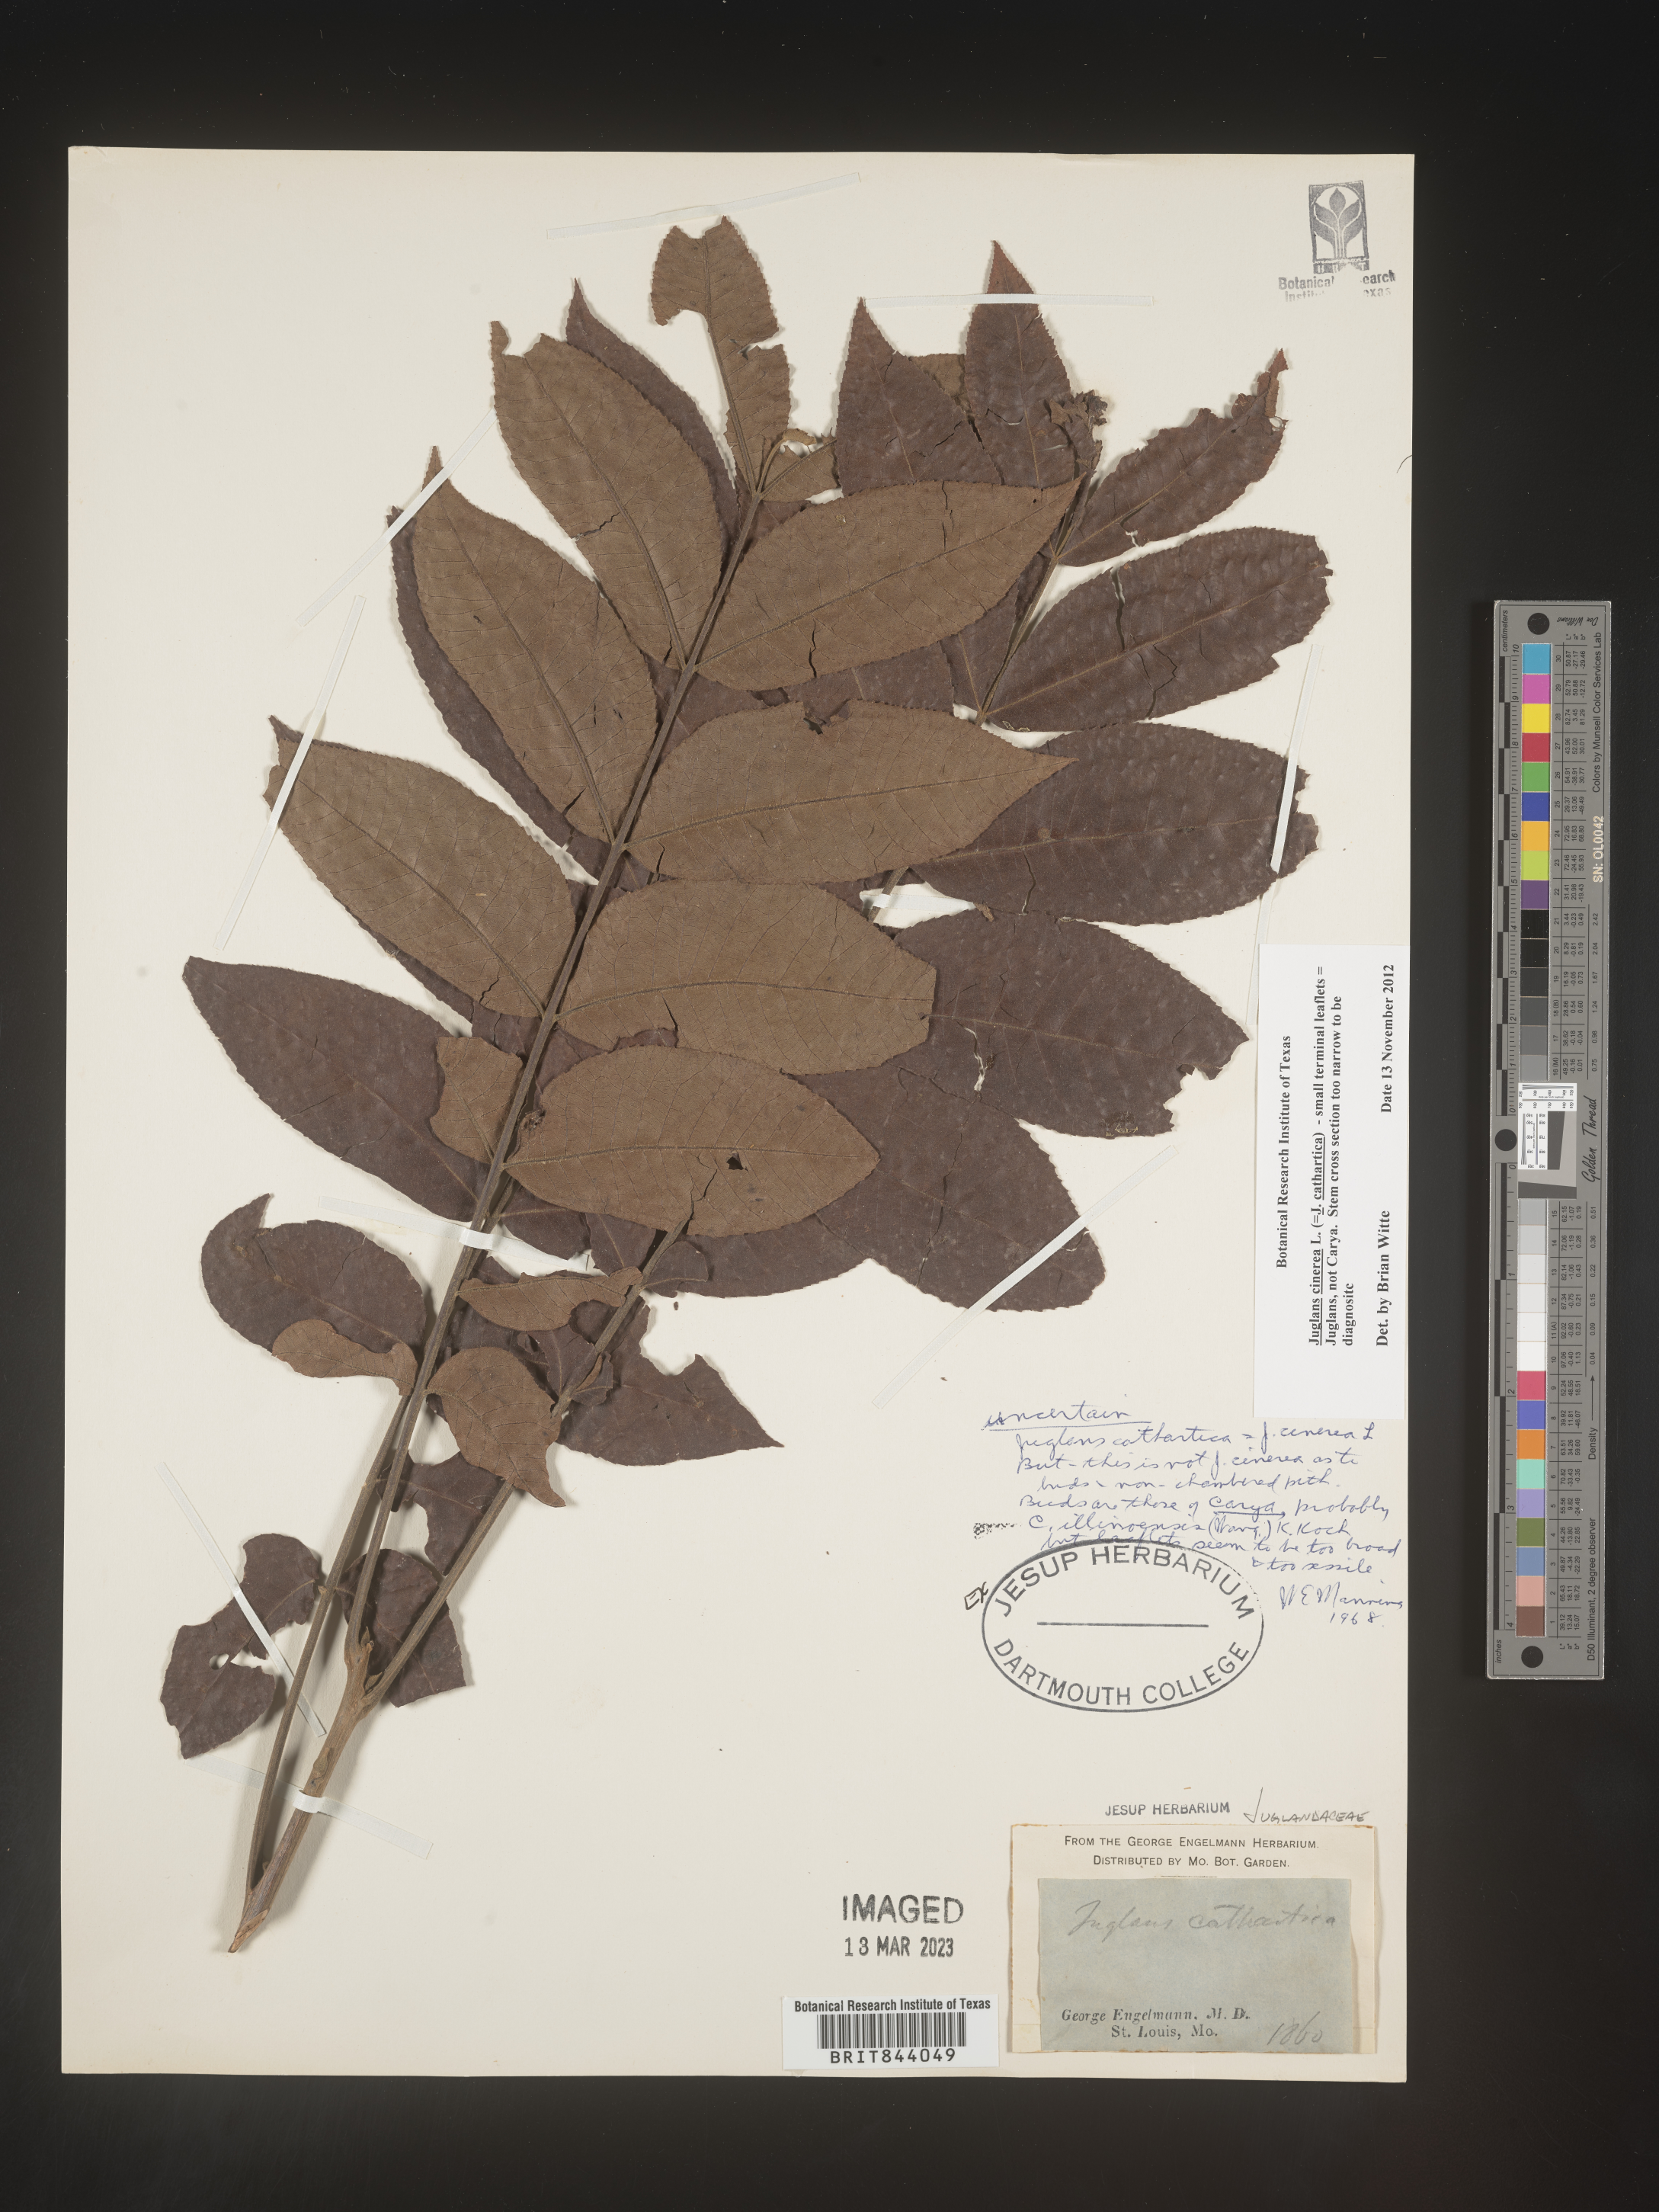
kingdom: Plantae
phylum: Tracheophyta
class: Magnoliopsida
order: Fagales
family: Juglandaceae
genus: Juglans
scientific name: Juglans cinerea
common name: Butternut
